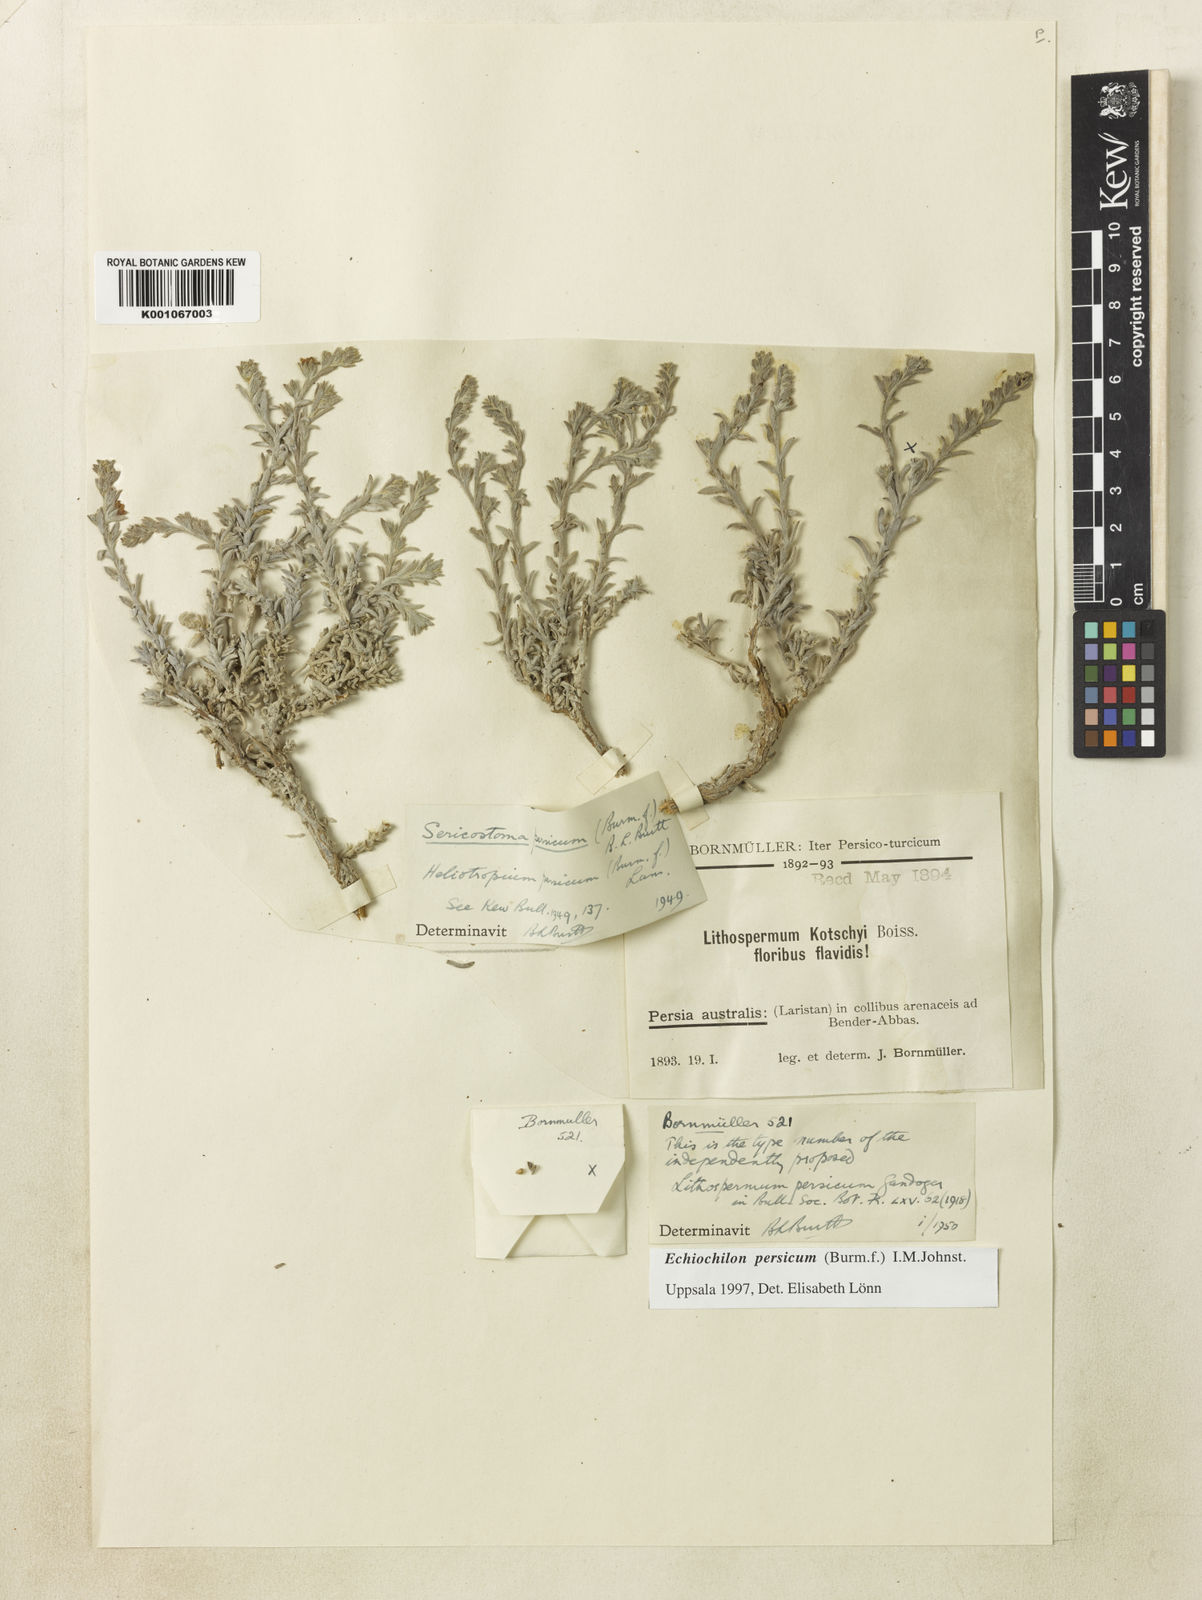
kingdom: Plantae
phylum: Tracheophyta
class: Magnoliopsida
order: Boraginales
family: Boraginaceae
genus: Echiochilon
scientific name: Echiochilon persicum
